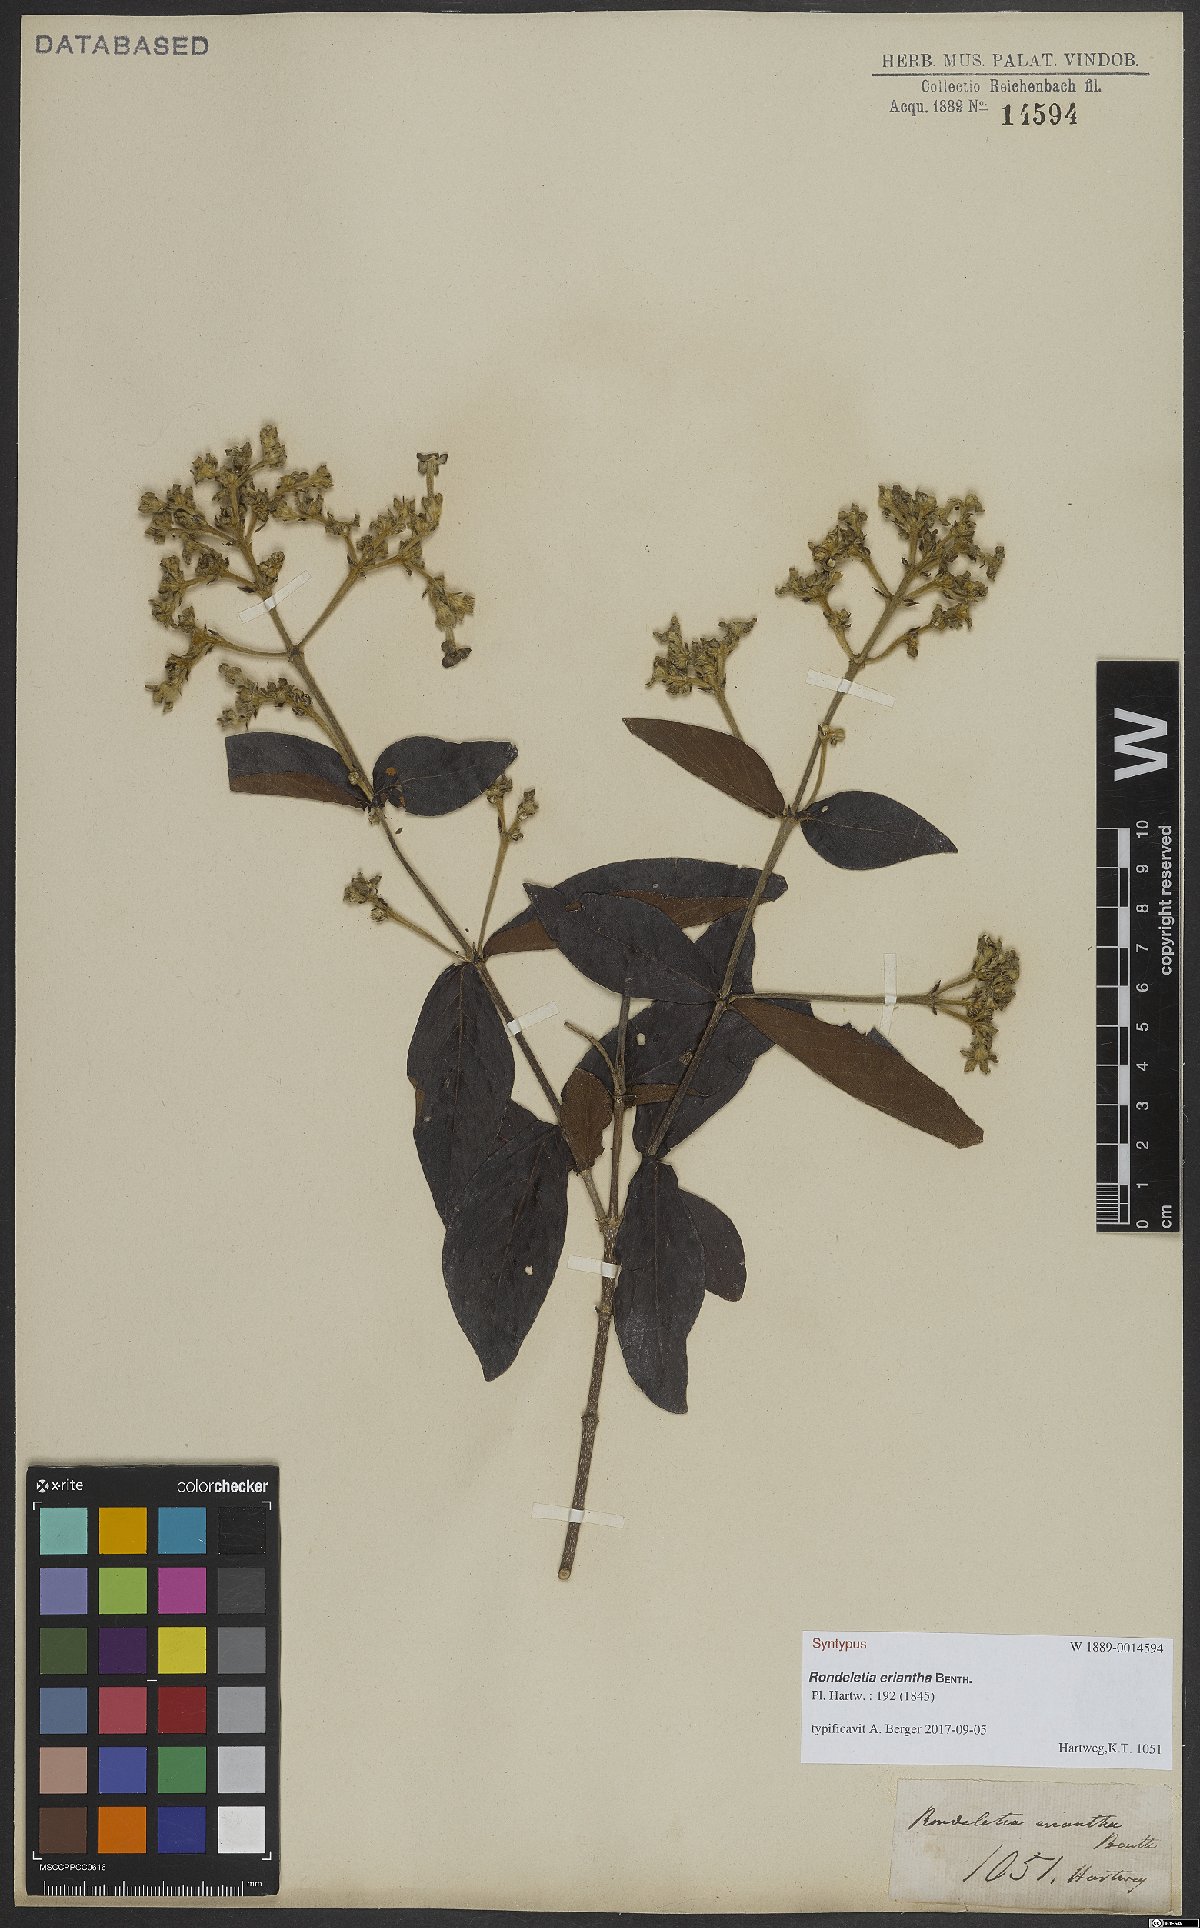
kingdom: Plantae
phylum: Tracheophyta
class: Magnoliopsida
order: Gentianales
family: Rubiaceae
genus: Rondeletia
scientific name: Rondeletia eriantha
